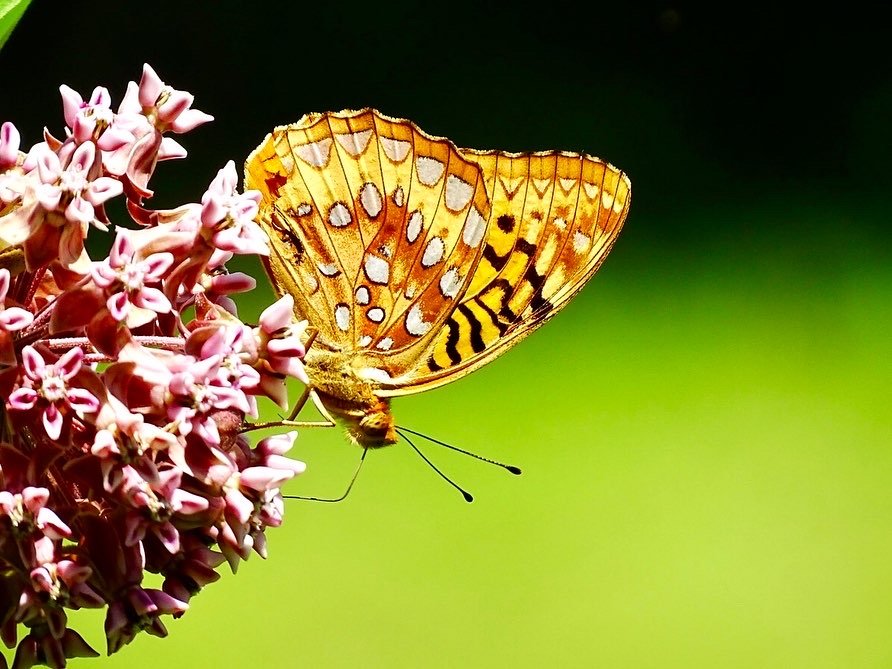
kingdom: Animalia
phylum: Arthropoda
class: Insecta
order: Lepidoptera
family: Nymphalidae
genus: Speyeria
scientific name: Speyeria cybele
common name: Great Spangled Fritillary
